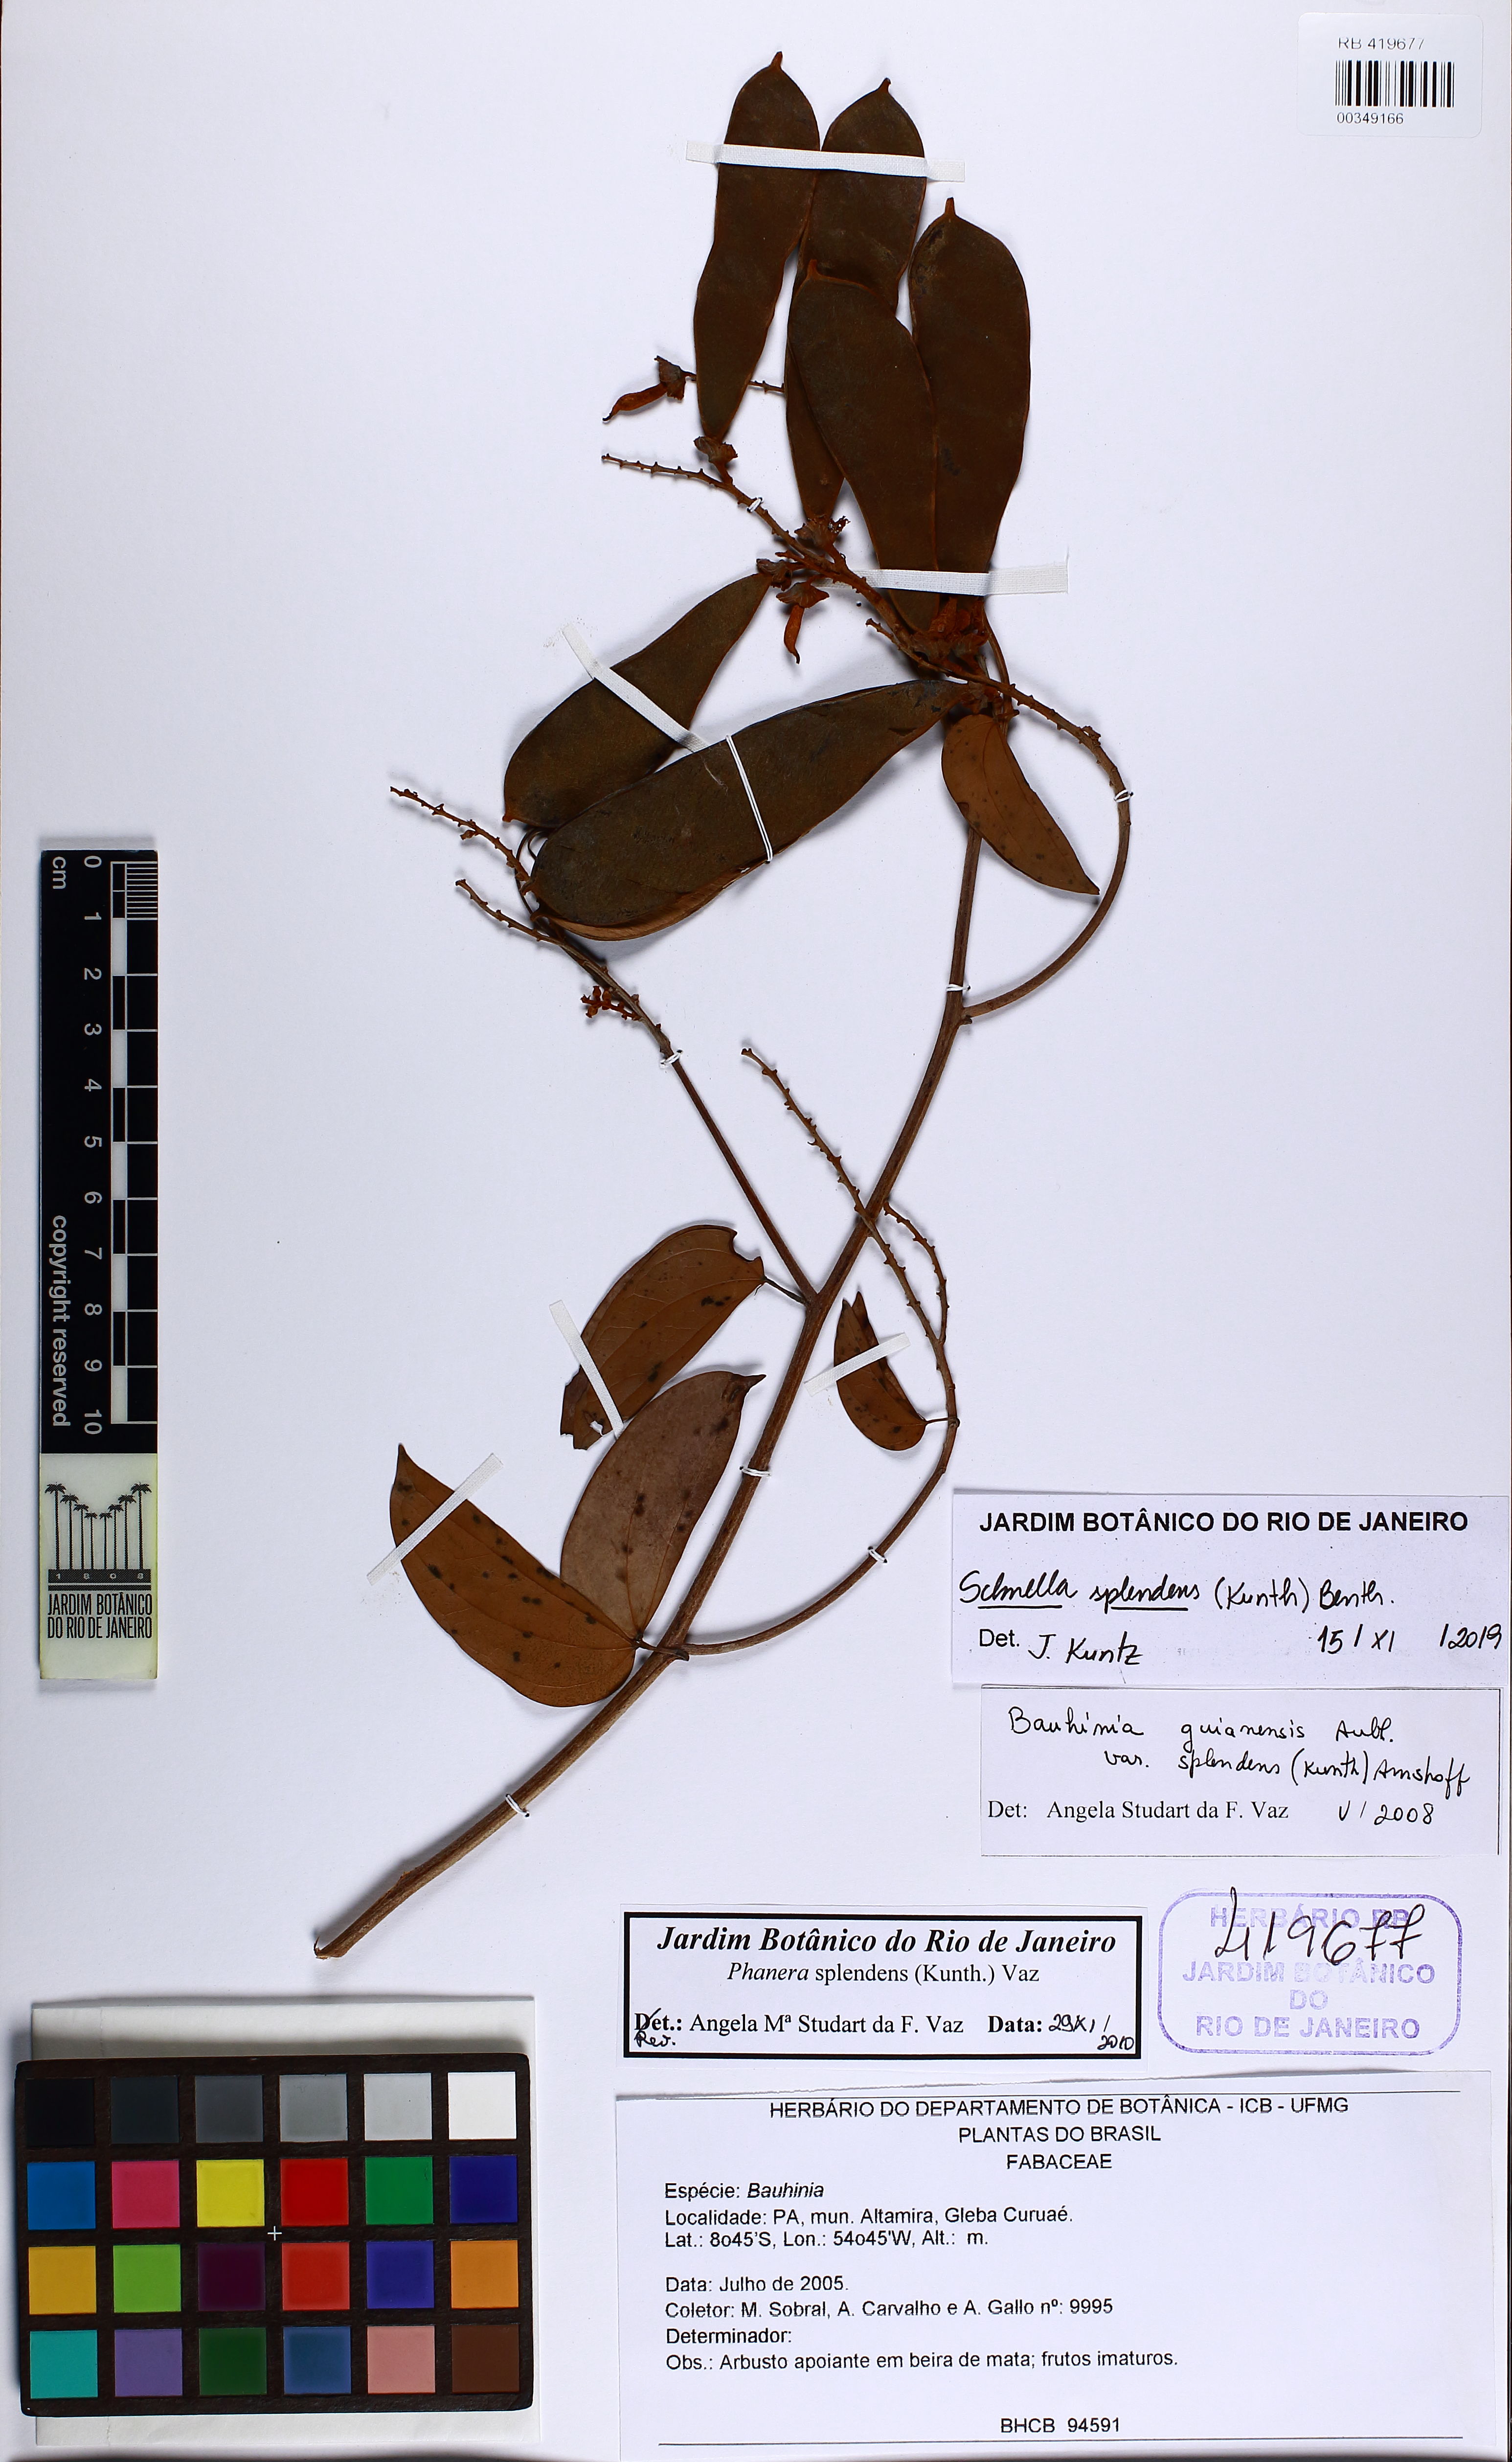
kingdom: Plantae
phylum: Tracheophyta
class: Magnoliopsida
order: Fabales
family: Fabaceae
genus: Schnella
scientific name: Schnella splendens
